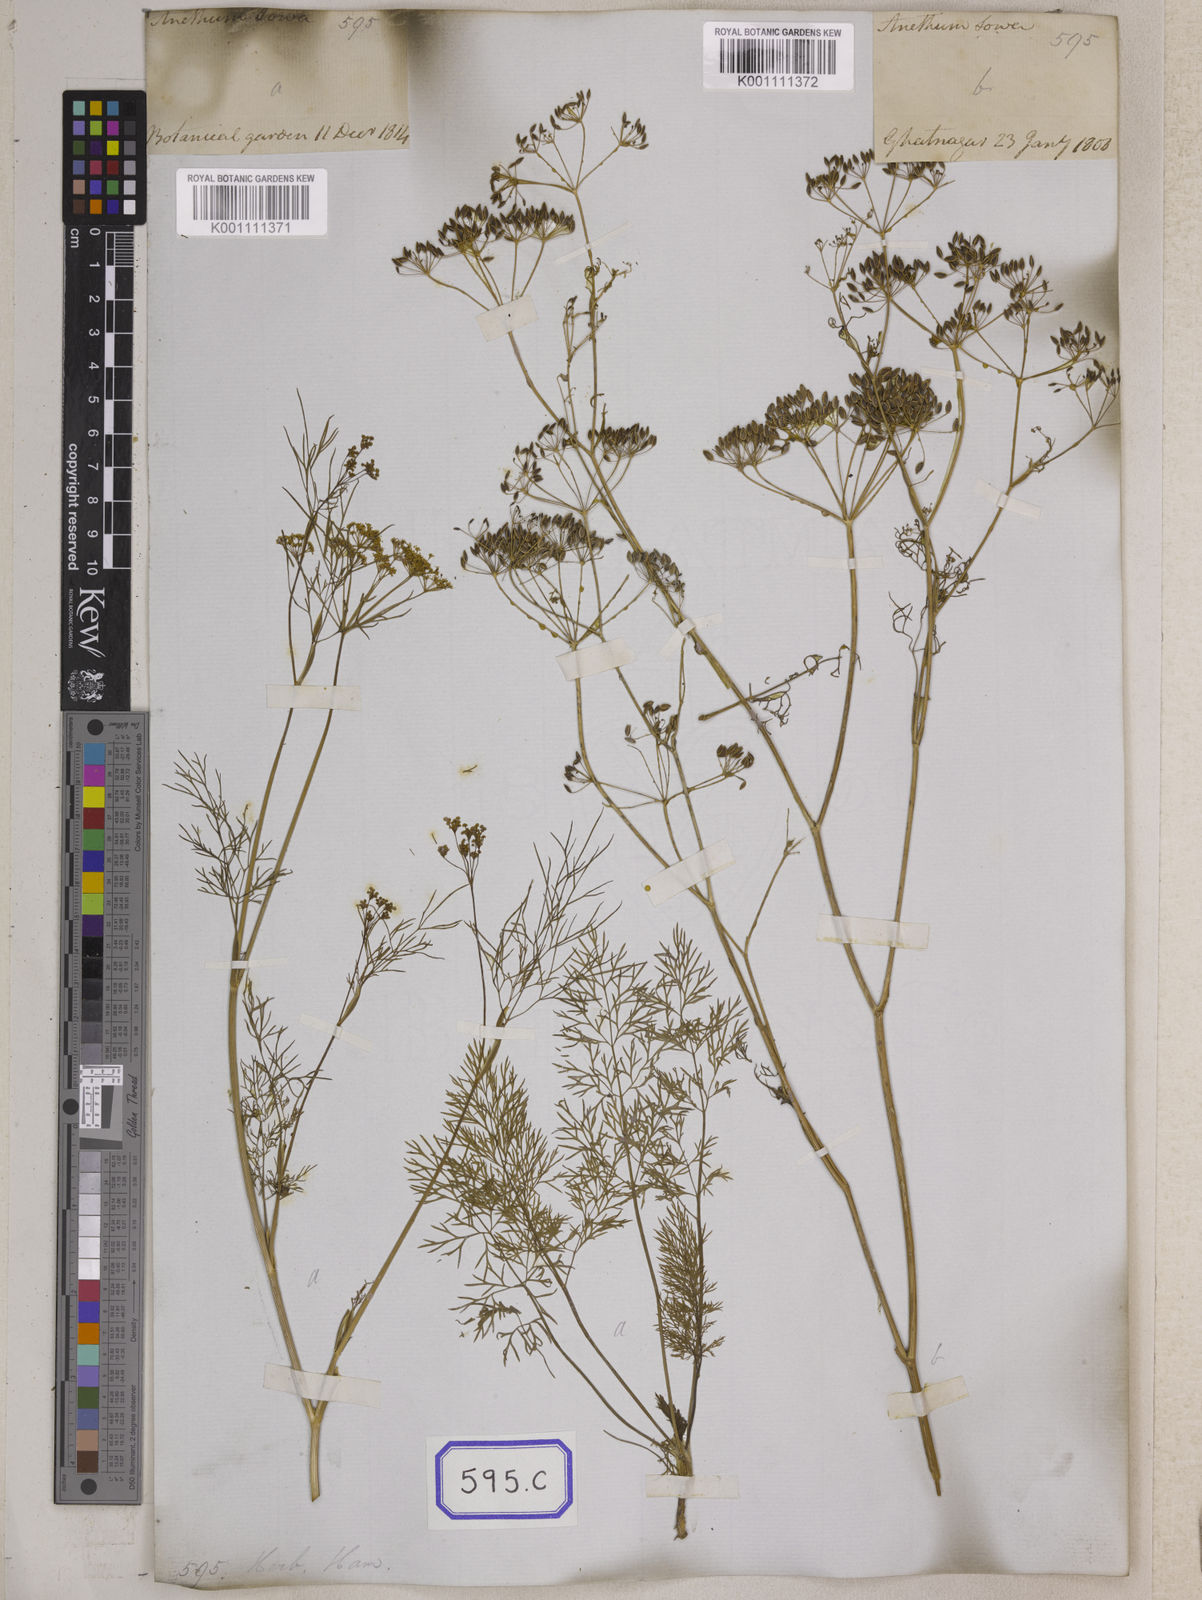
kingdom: Plantae
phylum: Tracheophyta
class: Magnoliopsida
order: Apiales
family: Apiaceae
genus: Anethum
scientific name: Anethum graveolens
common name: Dill
